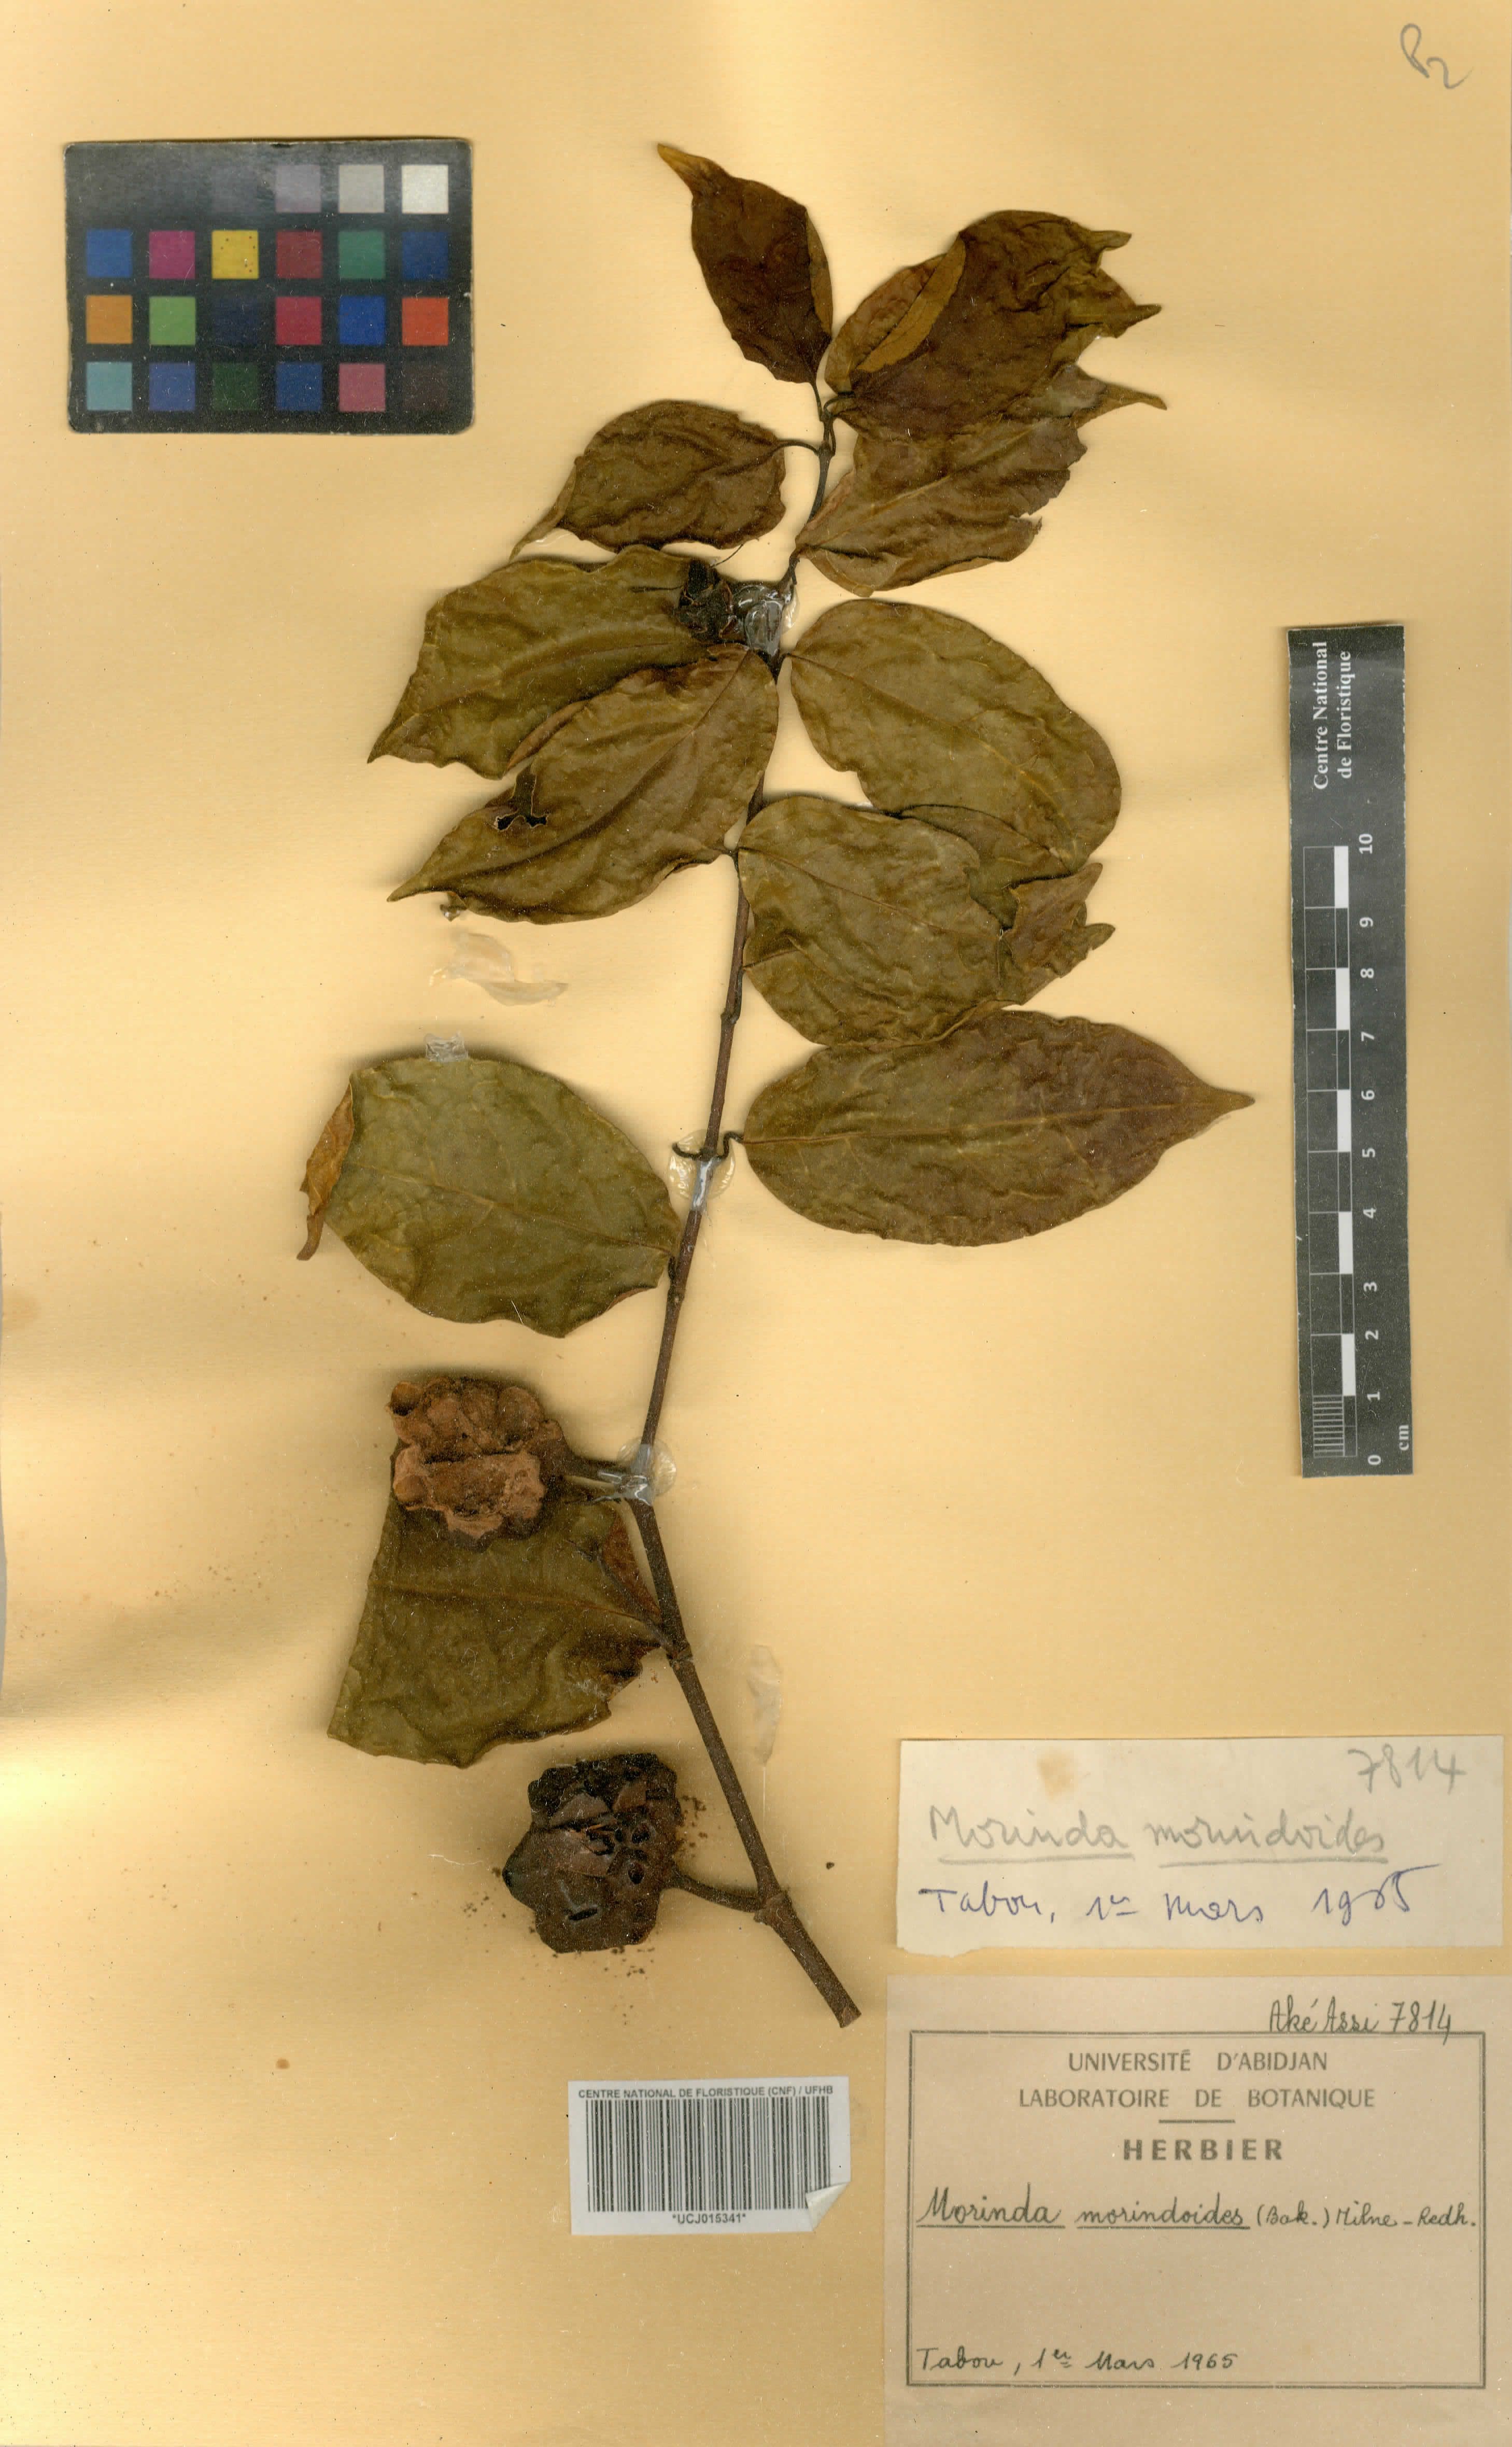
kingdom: Plantae
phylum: Tracheophyta
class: Magnoliopsida
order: Gentianales
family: Rubiaceae
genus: Morinda
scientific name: Morinda morindoides
